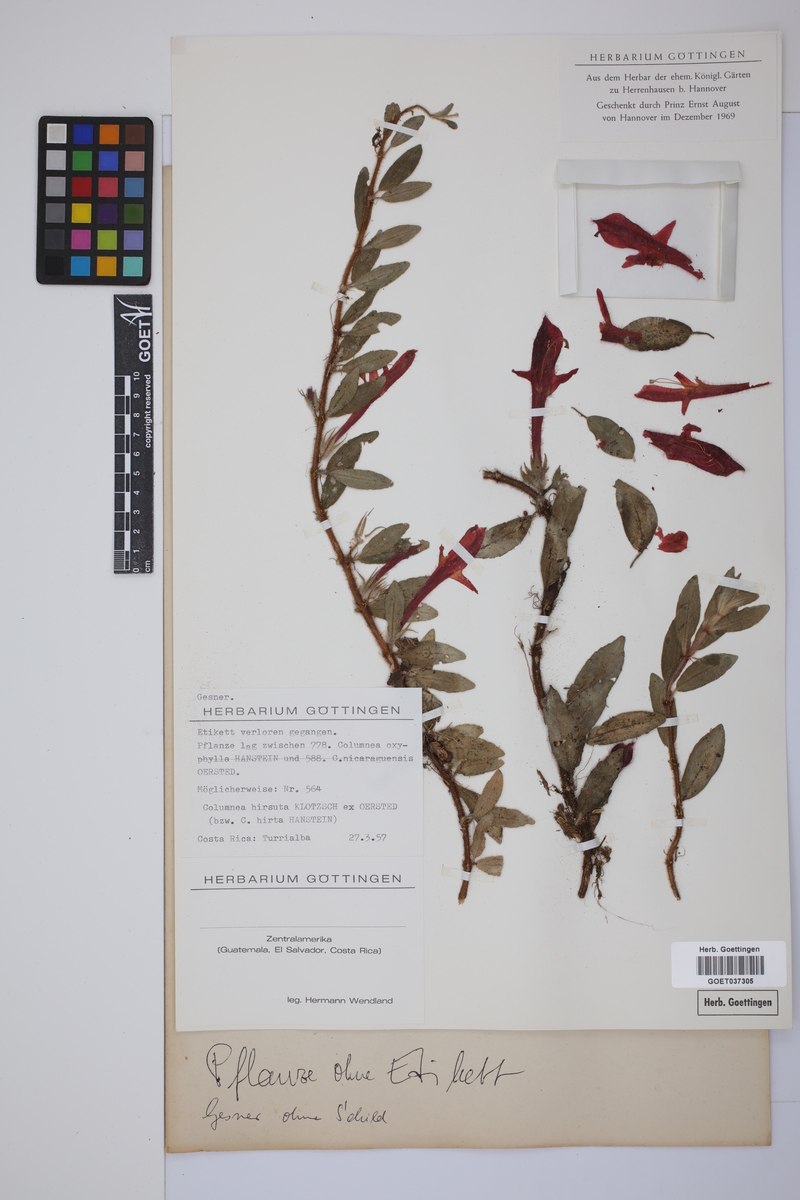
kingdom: Plantae
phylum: Tracheophyta
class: Magnoliopsida
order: Lamiales
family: Gesneriaceae
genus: Columnea
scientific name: Columnea hirta
